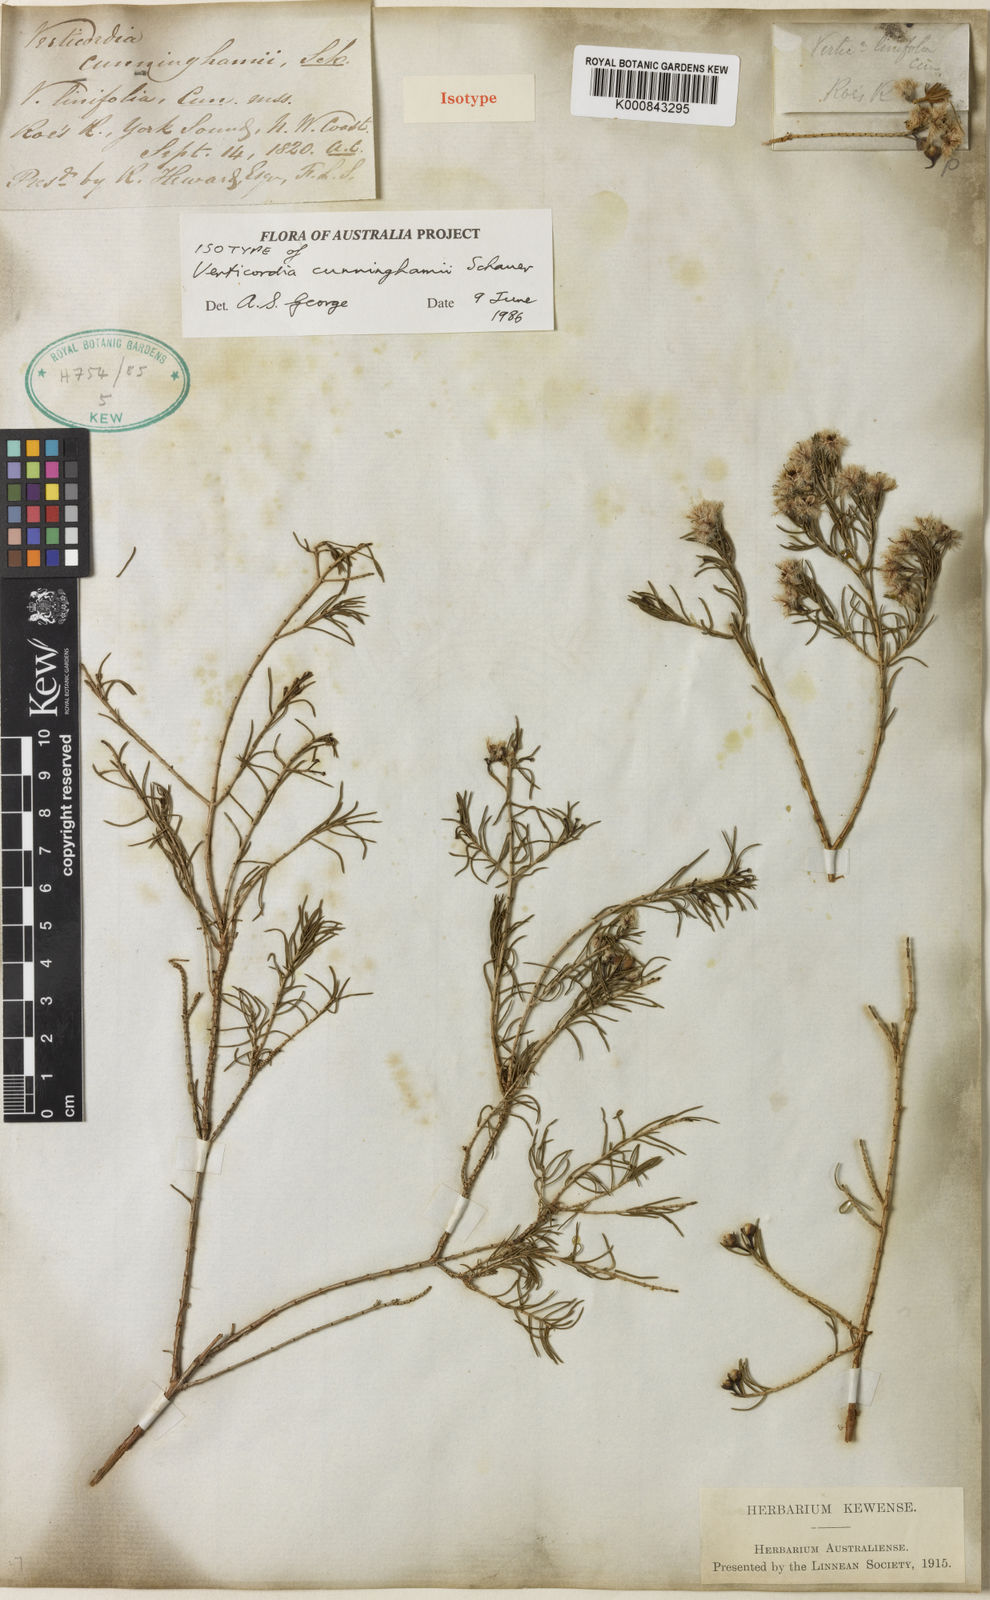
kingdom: Plantae
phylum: Tracheophyta
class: Magnoliopsida
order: Myrtales
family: Myrtaceae
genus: Verticordia
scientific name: Verticordia cunninghamii
